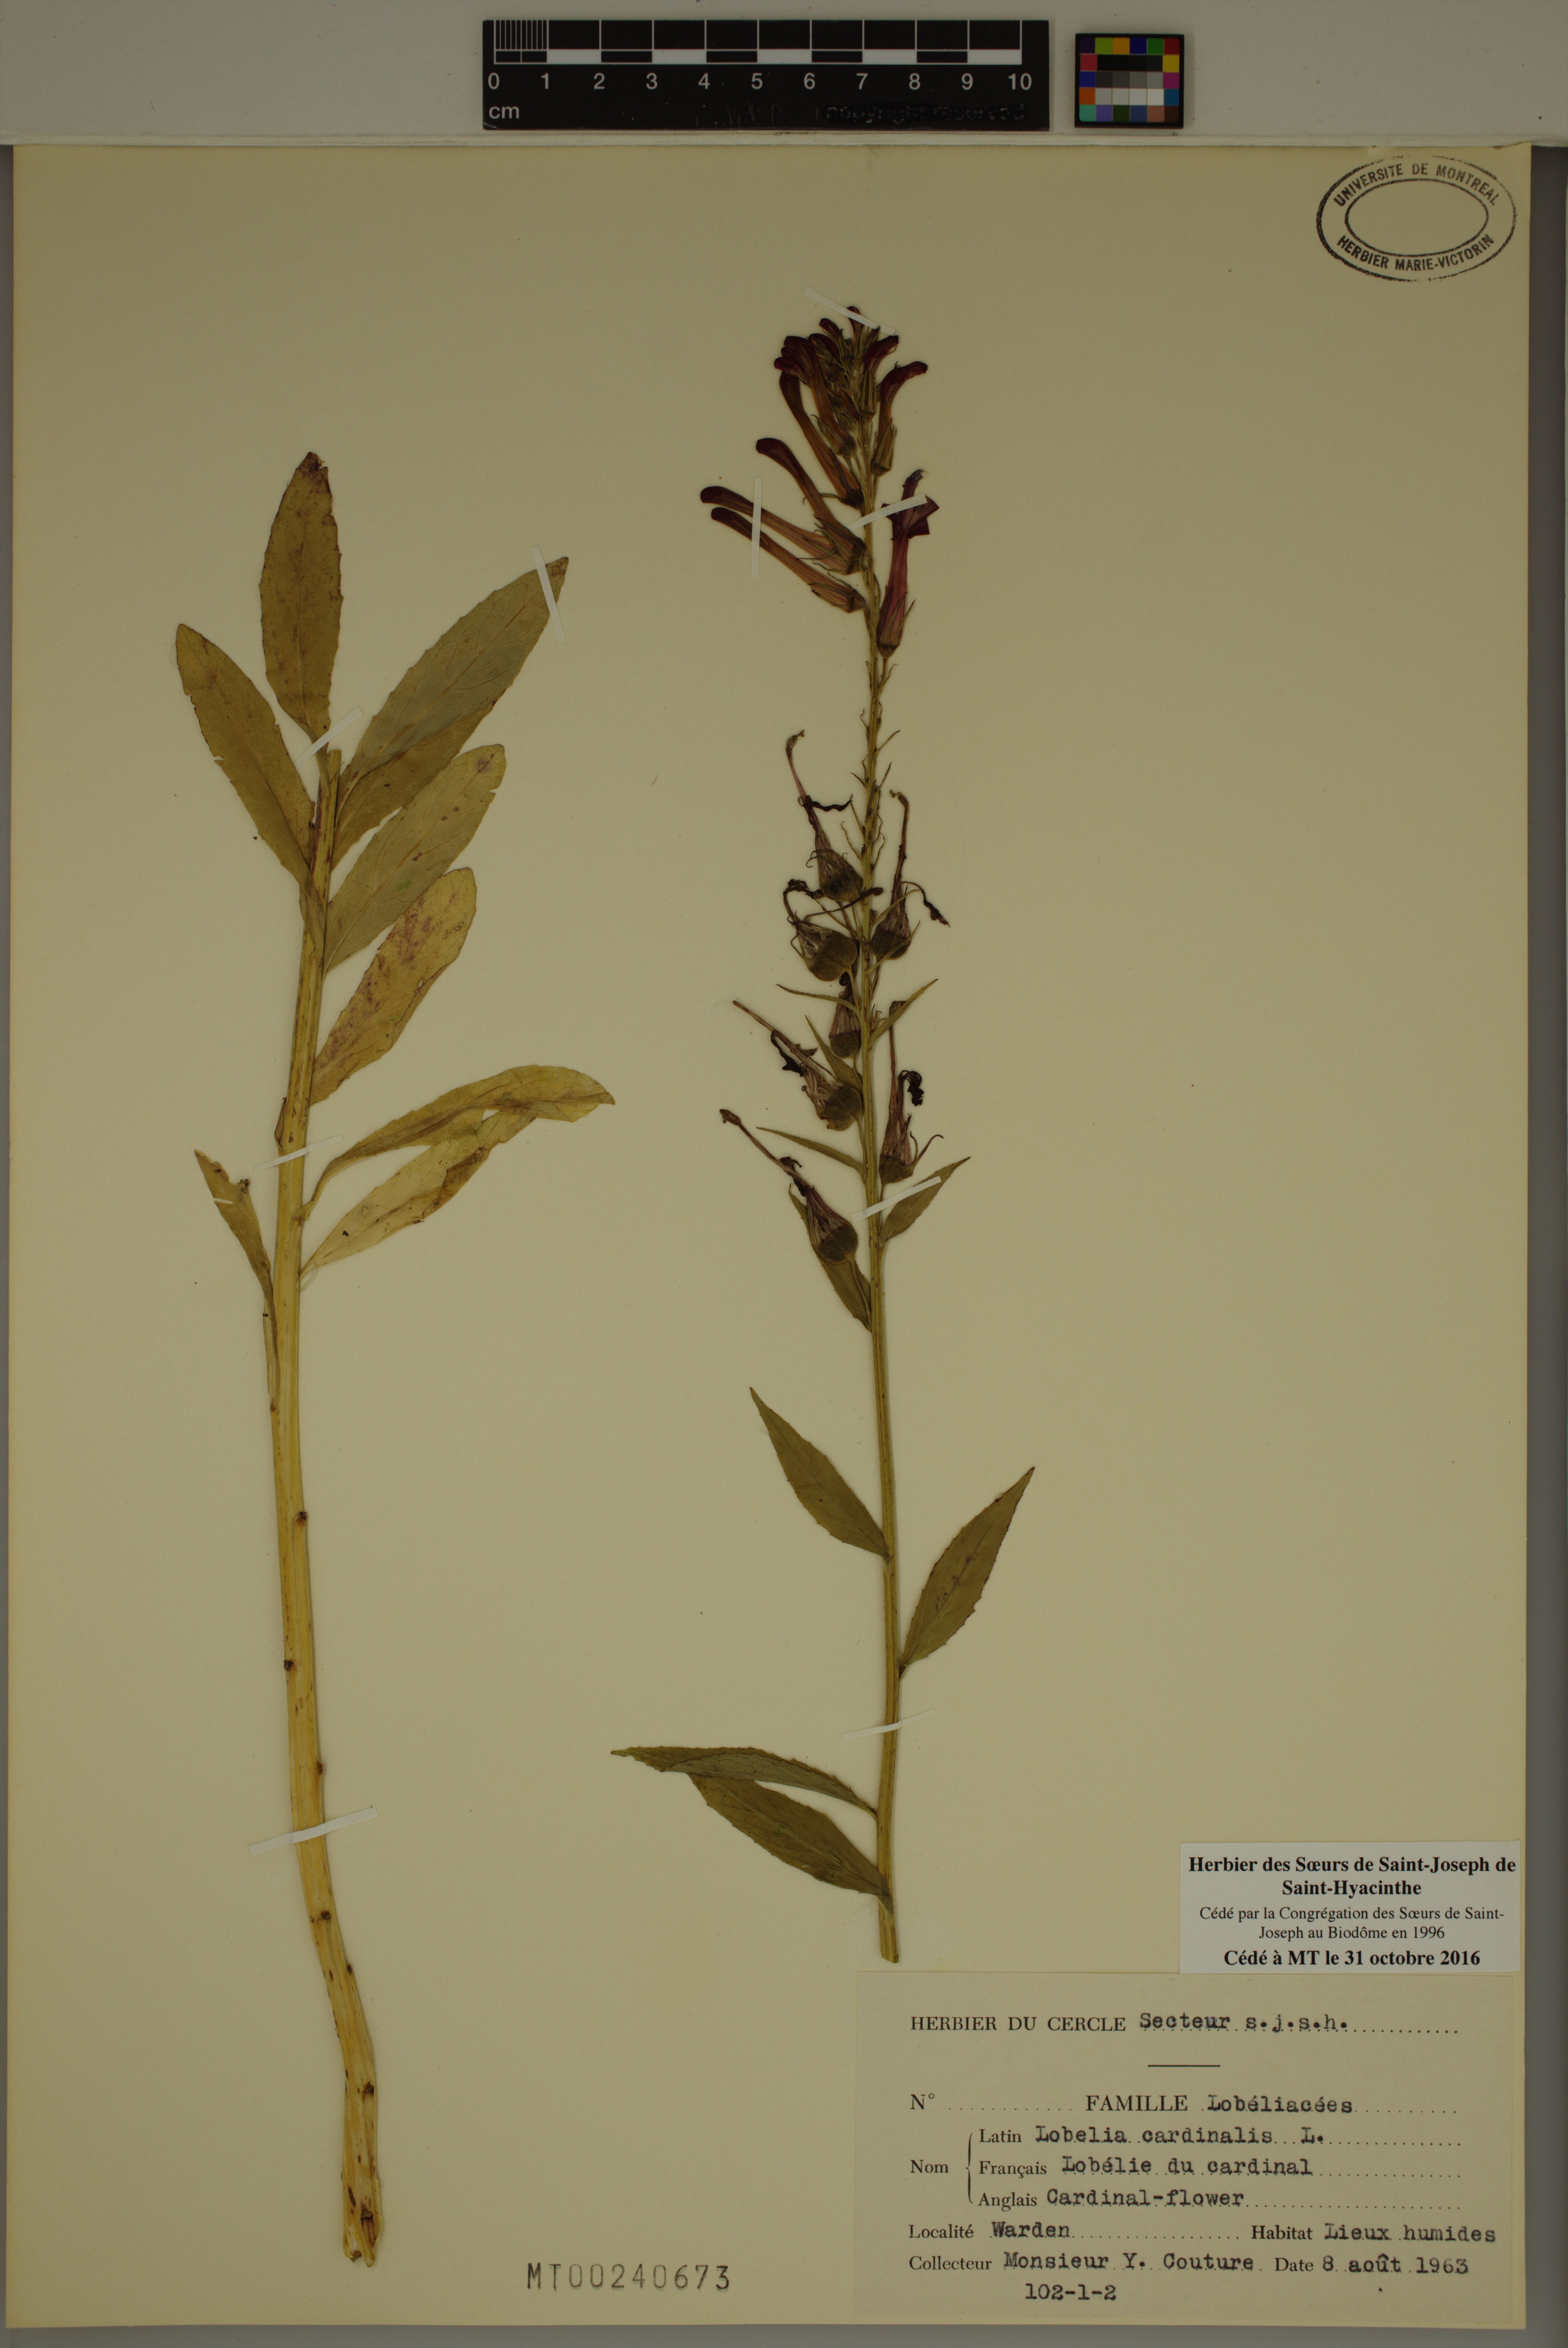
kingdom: Plantae
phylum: Tracheophyta
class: Magnoliopsida
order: Asterales
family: Campanulaceae
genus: Lobelia
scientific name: Lobelia cardinalis
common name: Cardinal flower
